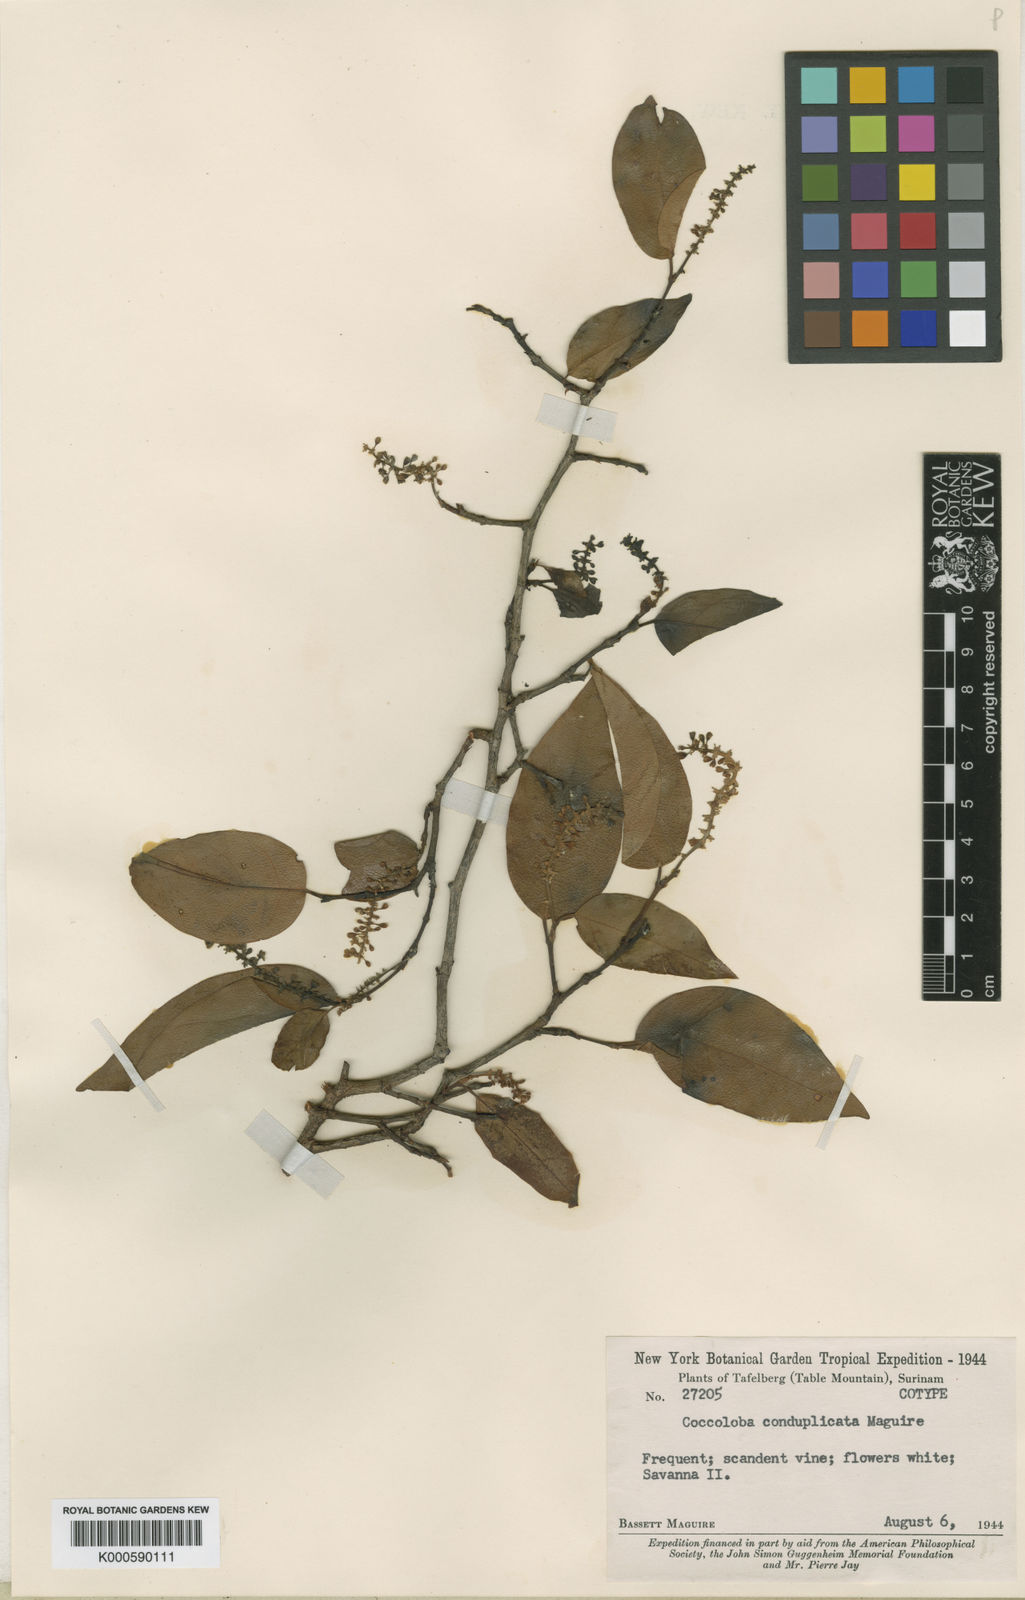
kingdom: Plantae
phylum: Tracheophyta
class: Magnoliopsida
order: Caryophyllales
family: Polygonaceae
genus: Coccoloba
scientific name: Coccoloba conduplicata
